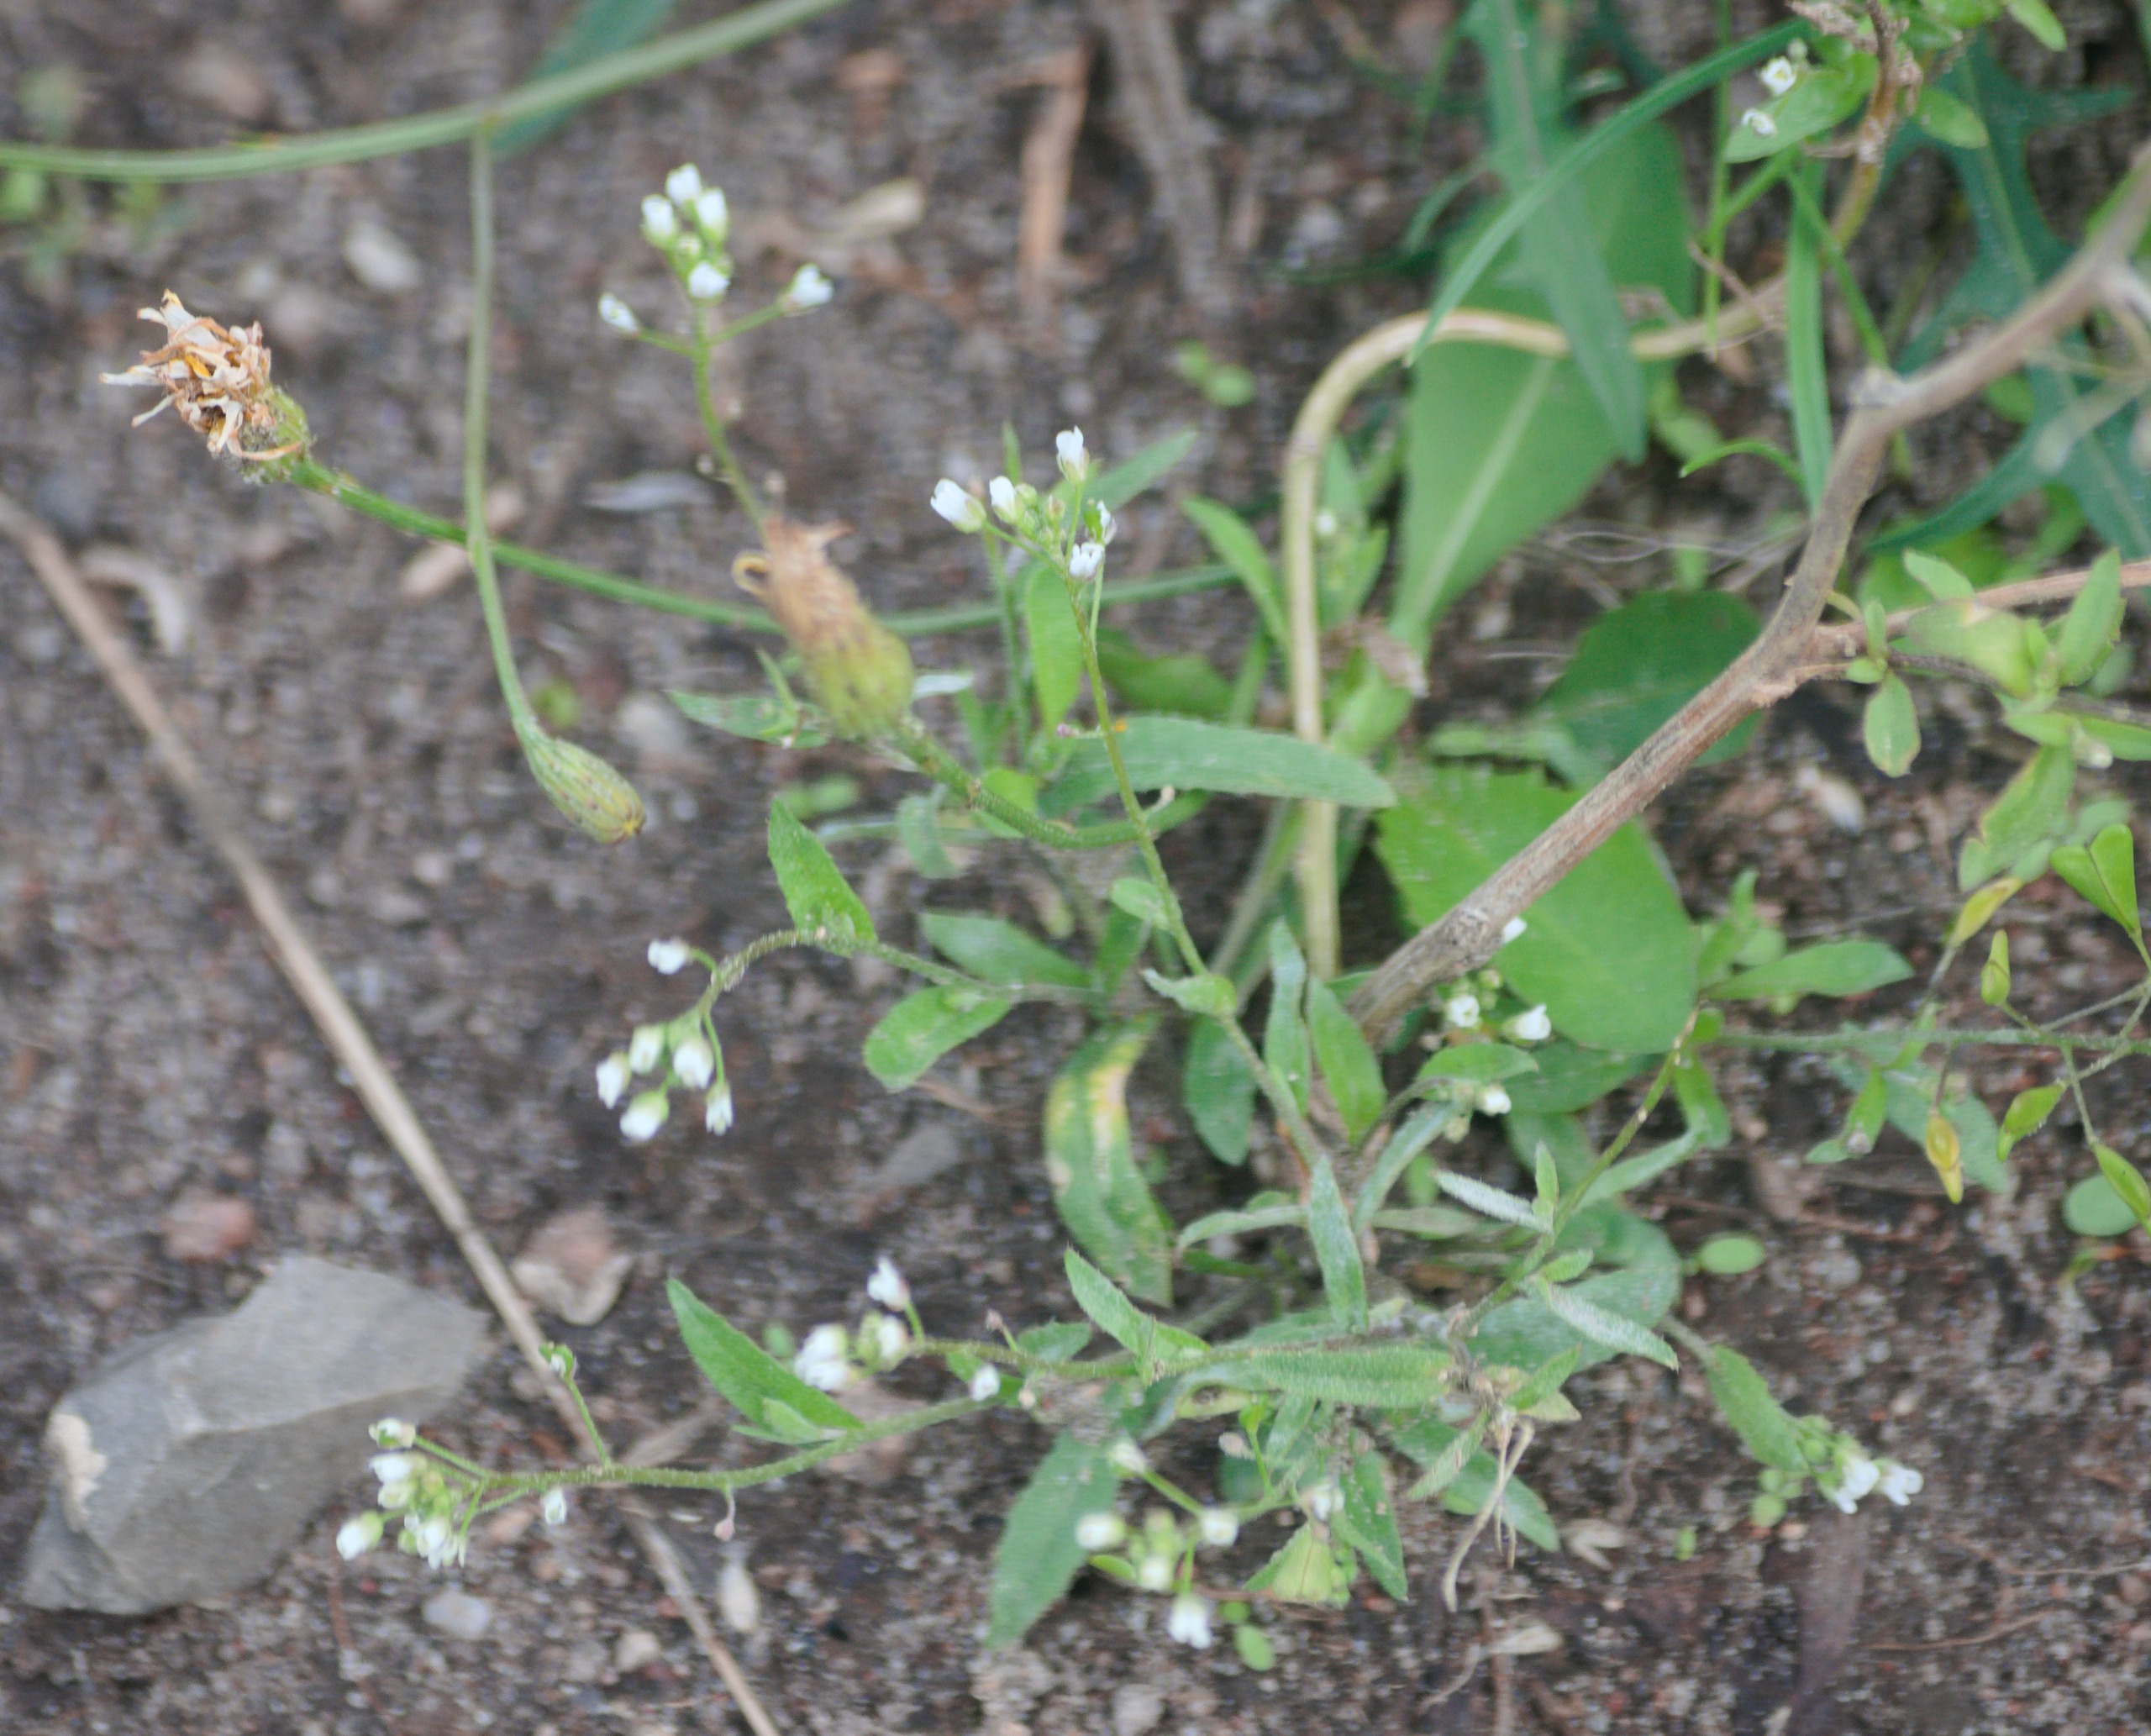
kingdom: Plantae
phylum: Tracheophyta
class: Magnoliopsida
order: Brassicales
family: Brassicaceae
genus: Capsella
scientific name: Capsella bursa-pastoris
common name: Hyrdetaske
